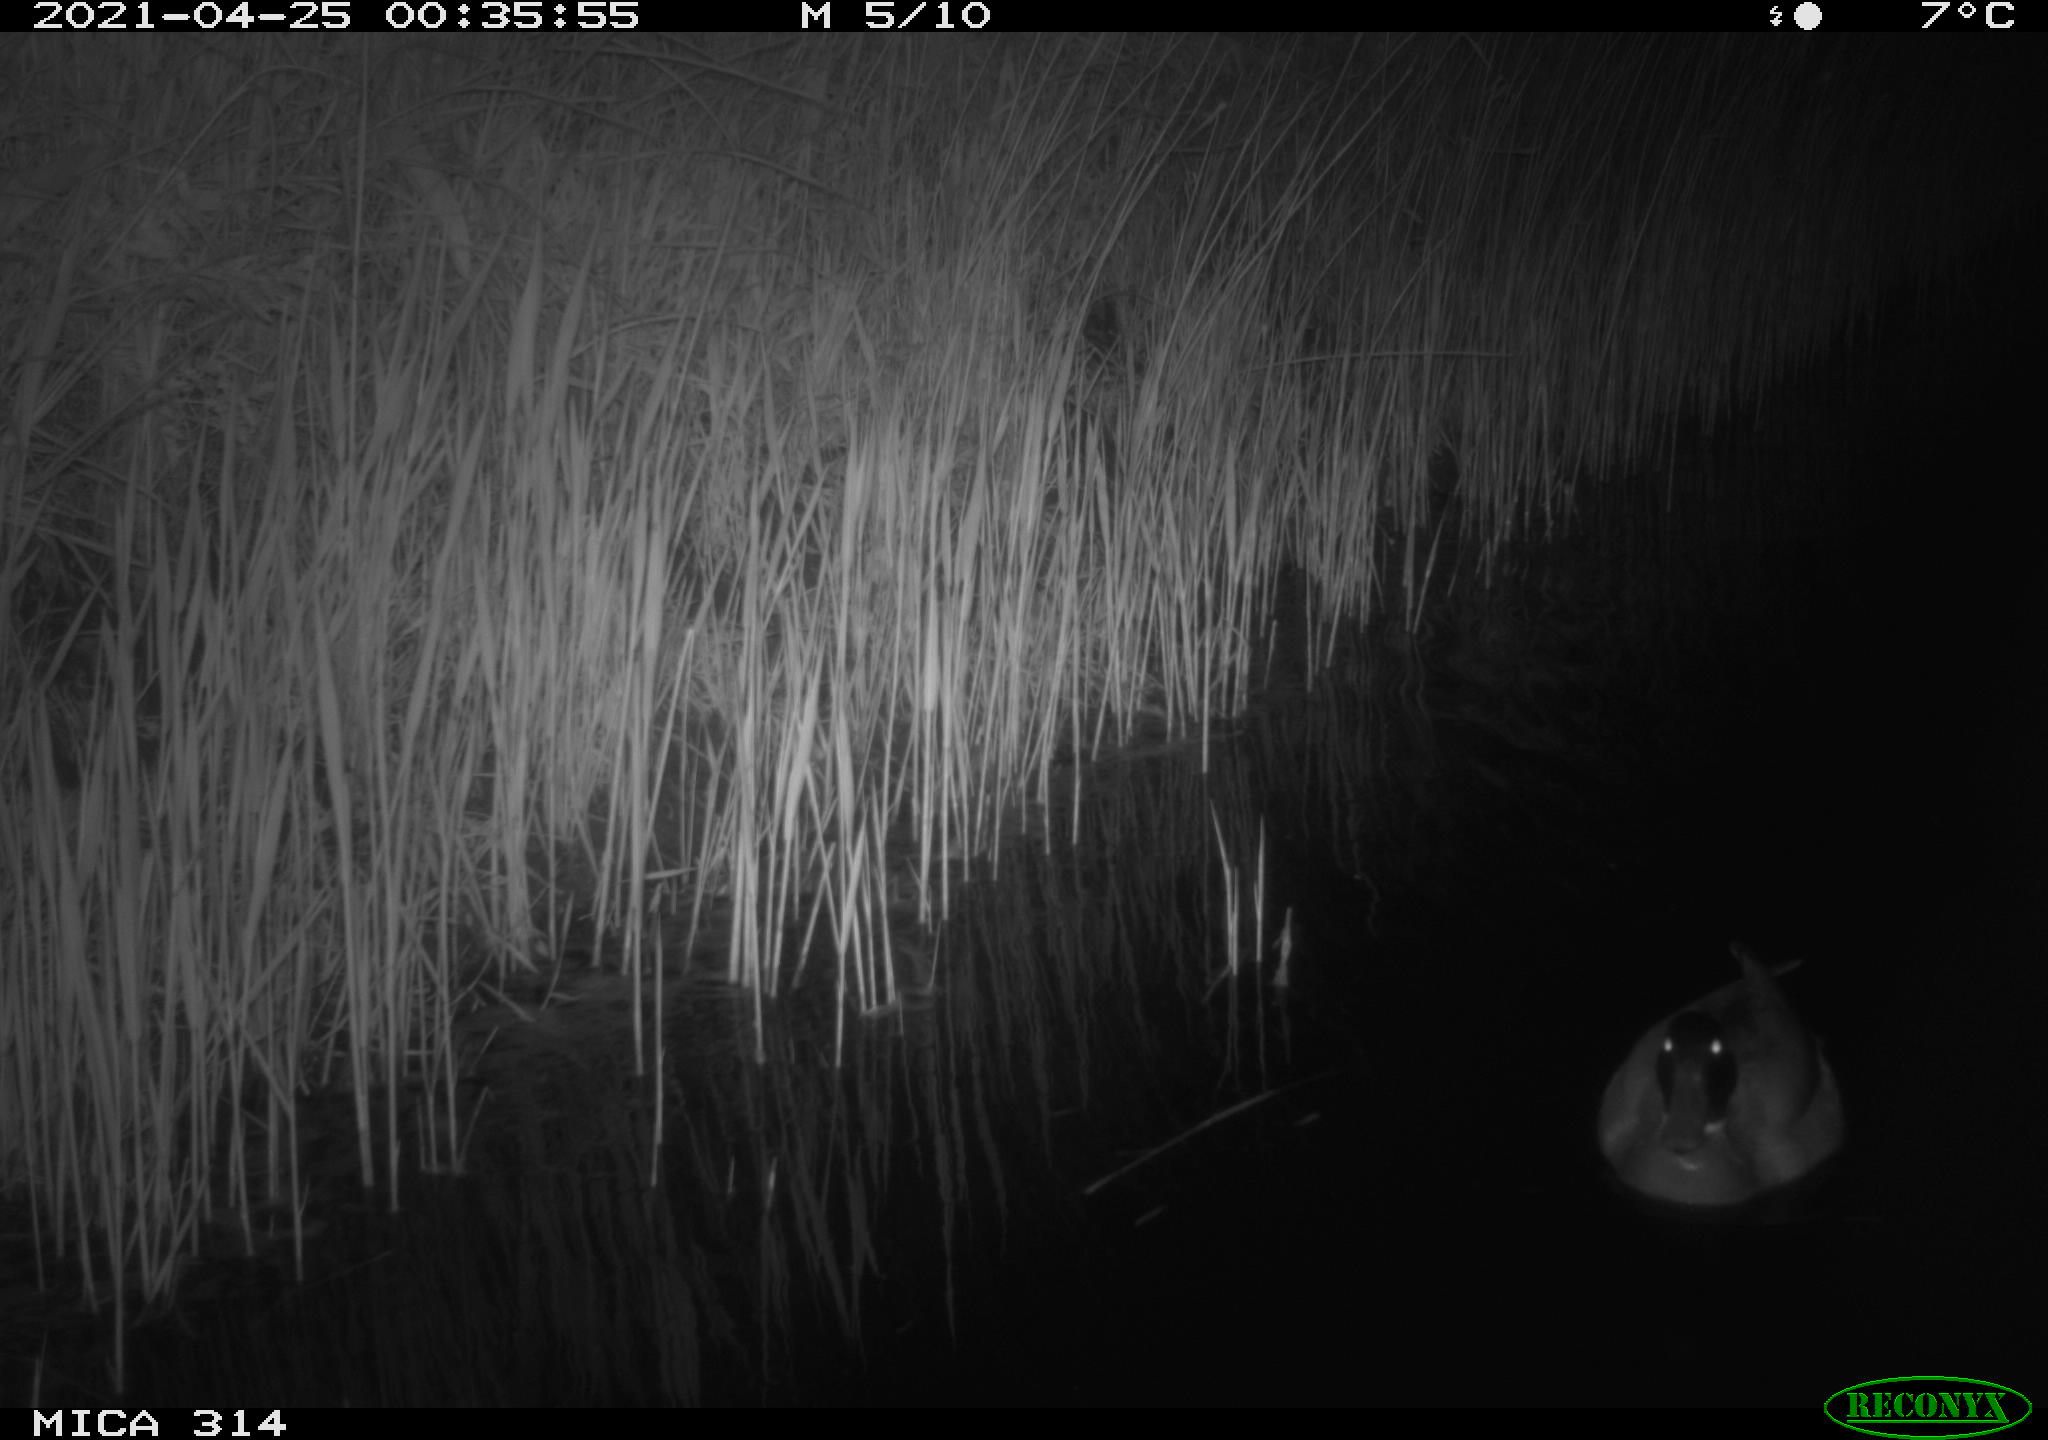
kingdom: Animalia
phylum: Chordata
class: Aves
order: Anseriformes
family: Anatidae
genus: Anas
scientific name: Anas platyrhynchos
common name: Mallard
